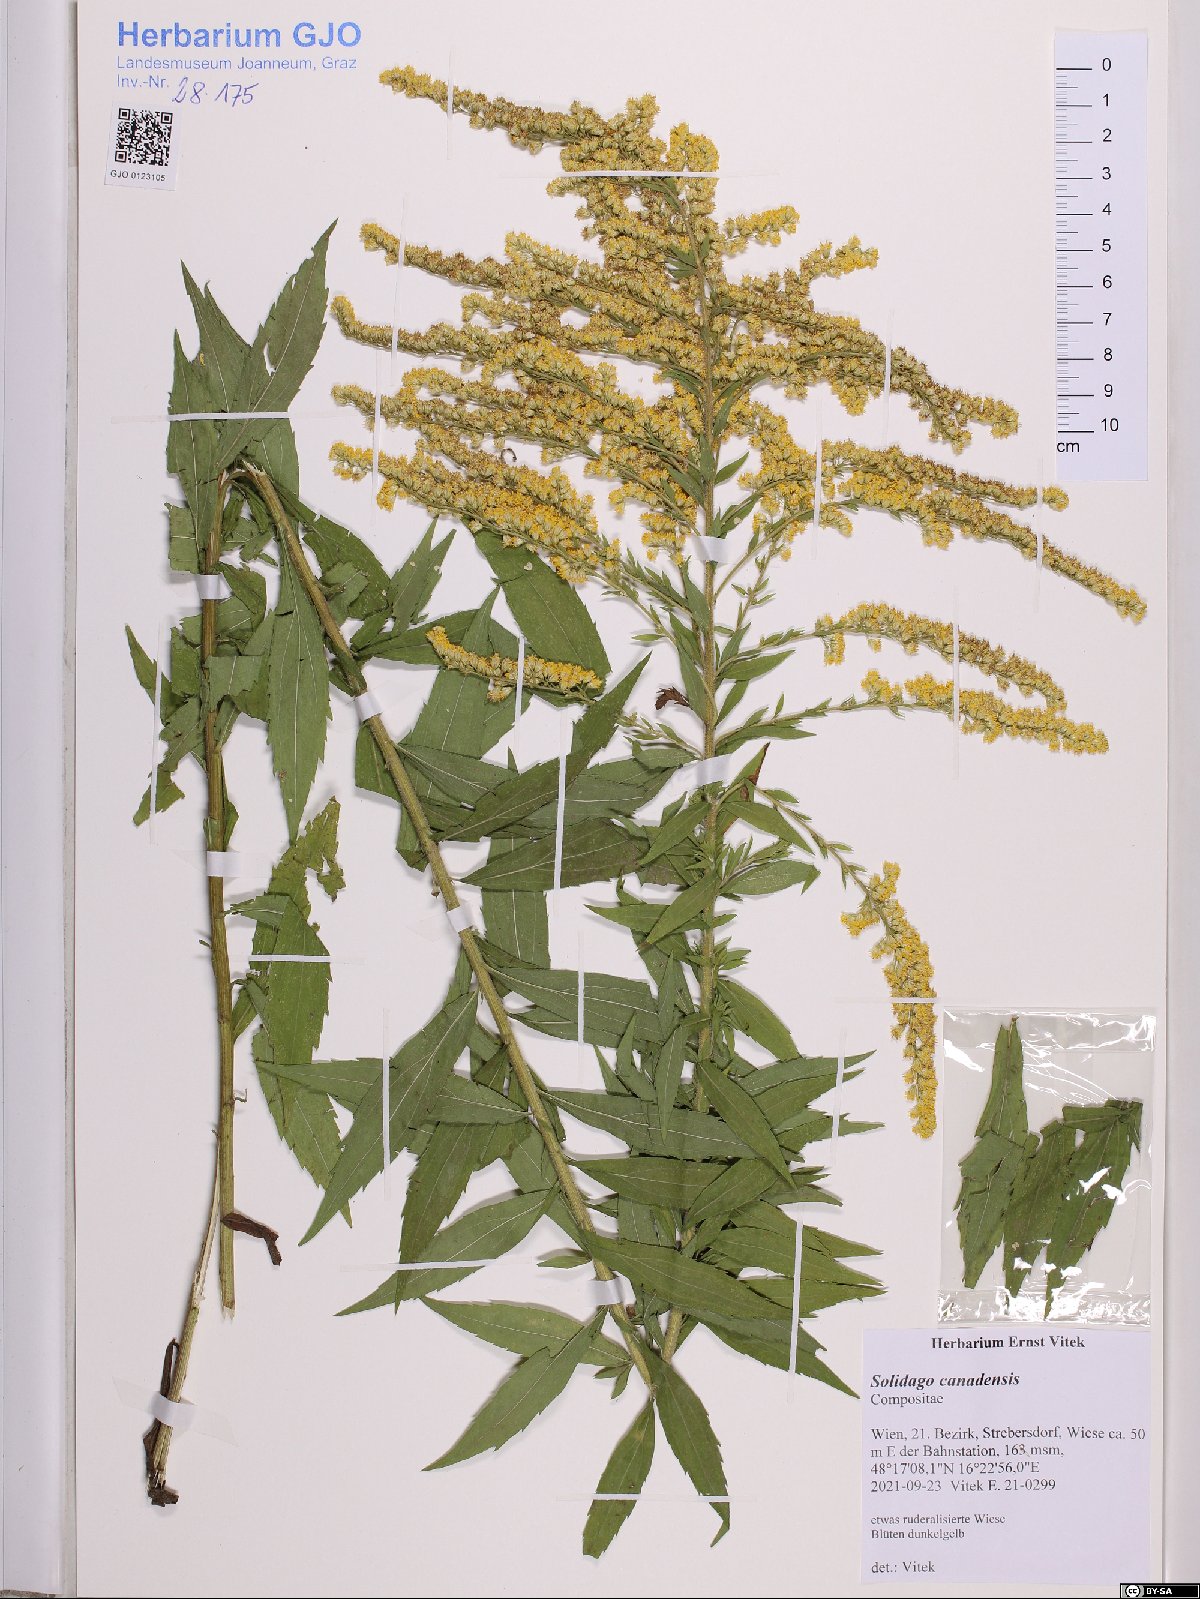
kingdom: Plantae
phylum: Tracheophyta
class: Magnoliopsida
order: Asterales
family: Asteraceae
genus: Solidago
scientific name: Solidago canadensis
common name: Canada goldenrod
